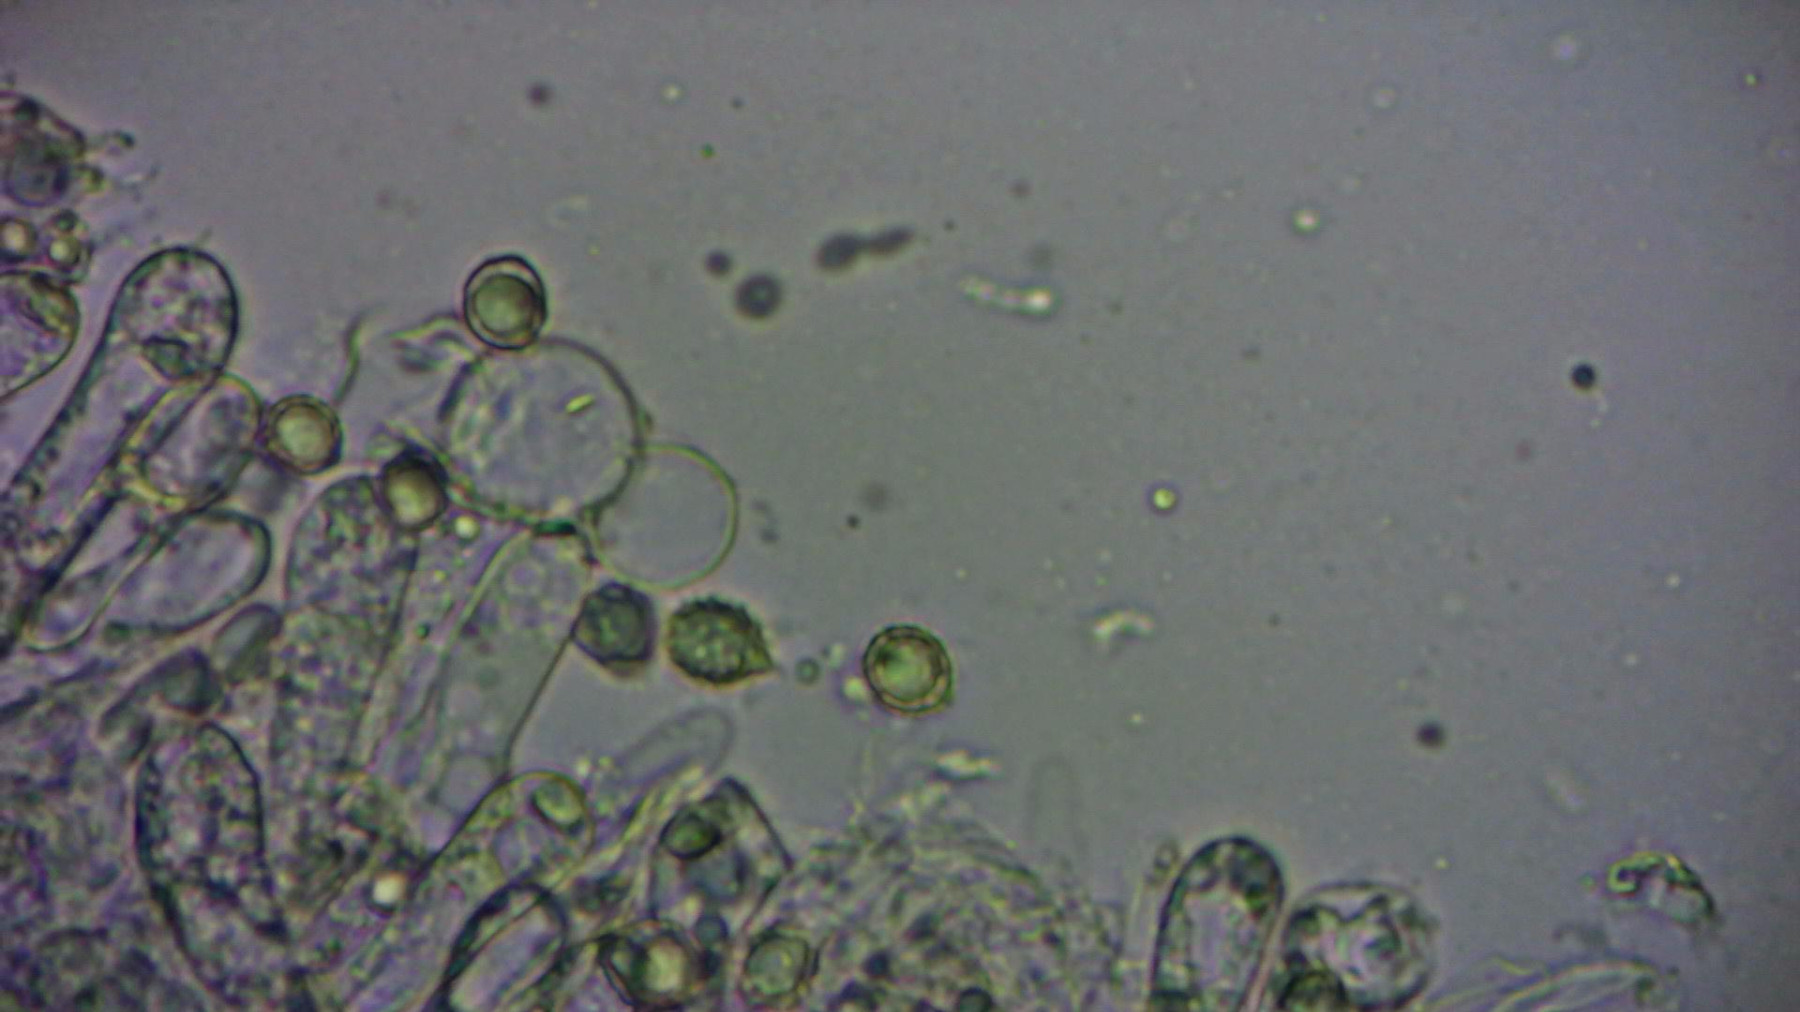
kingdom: Fungi
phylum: Basidiomycota
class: Agaricomycetes
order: Russulales
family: Russulaceae
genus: Russula
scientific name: Russula
